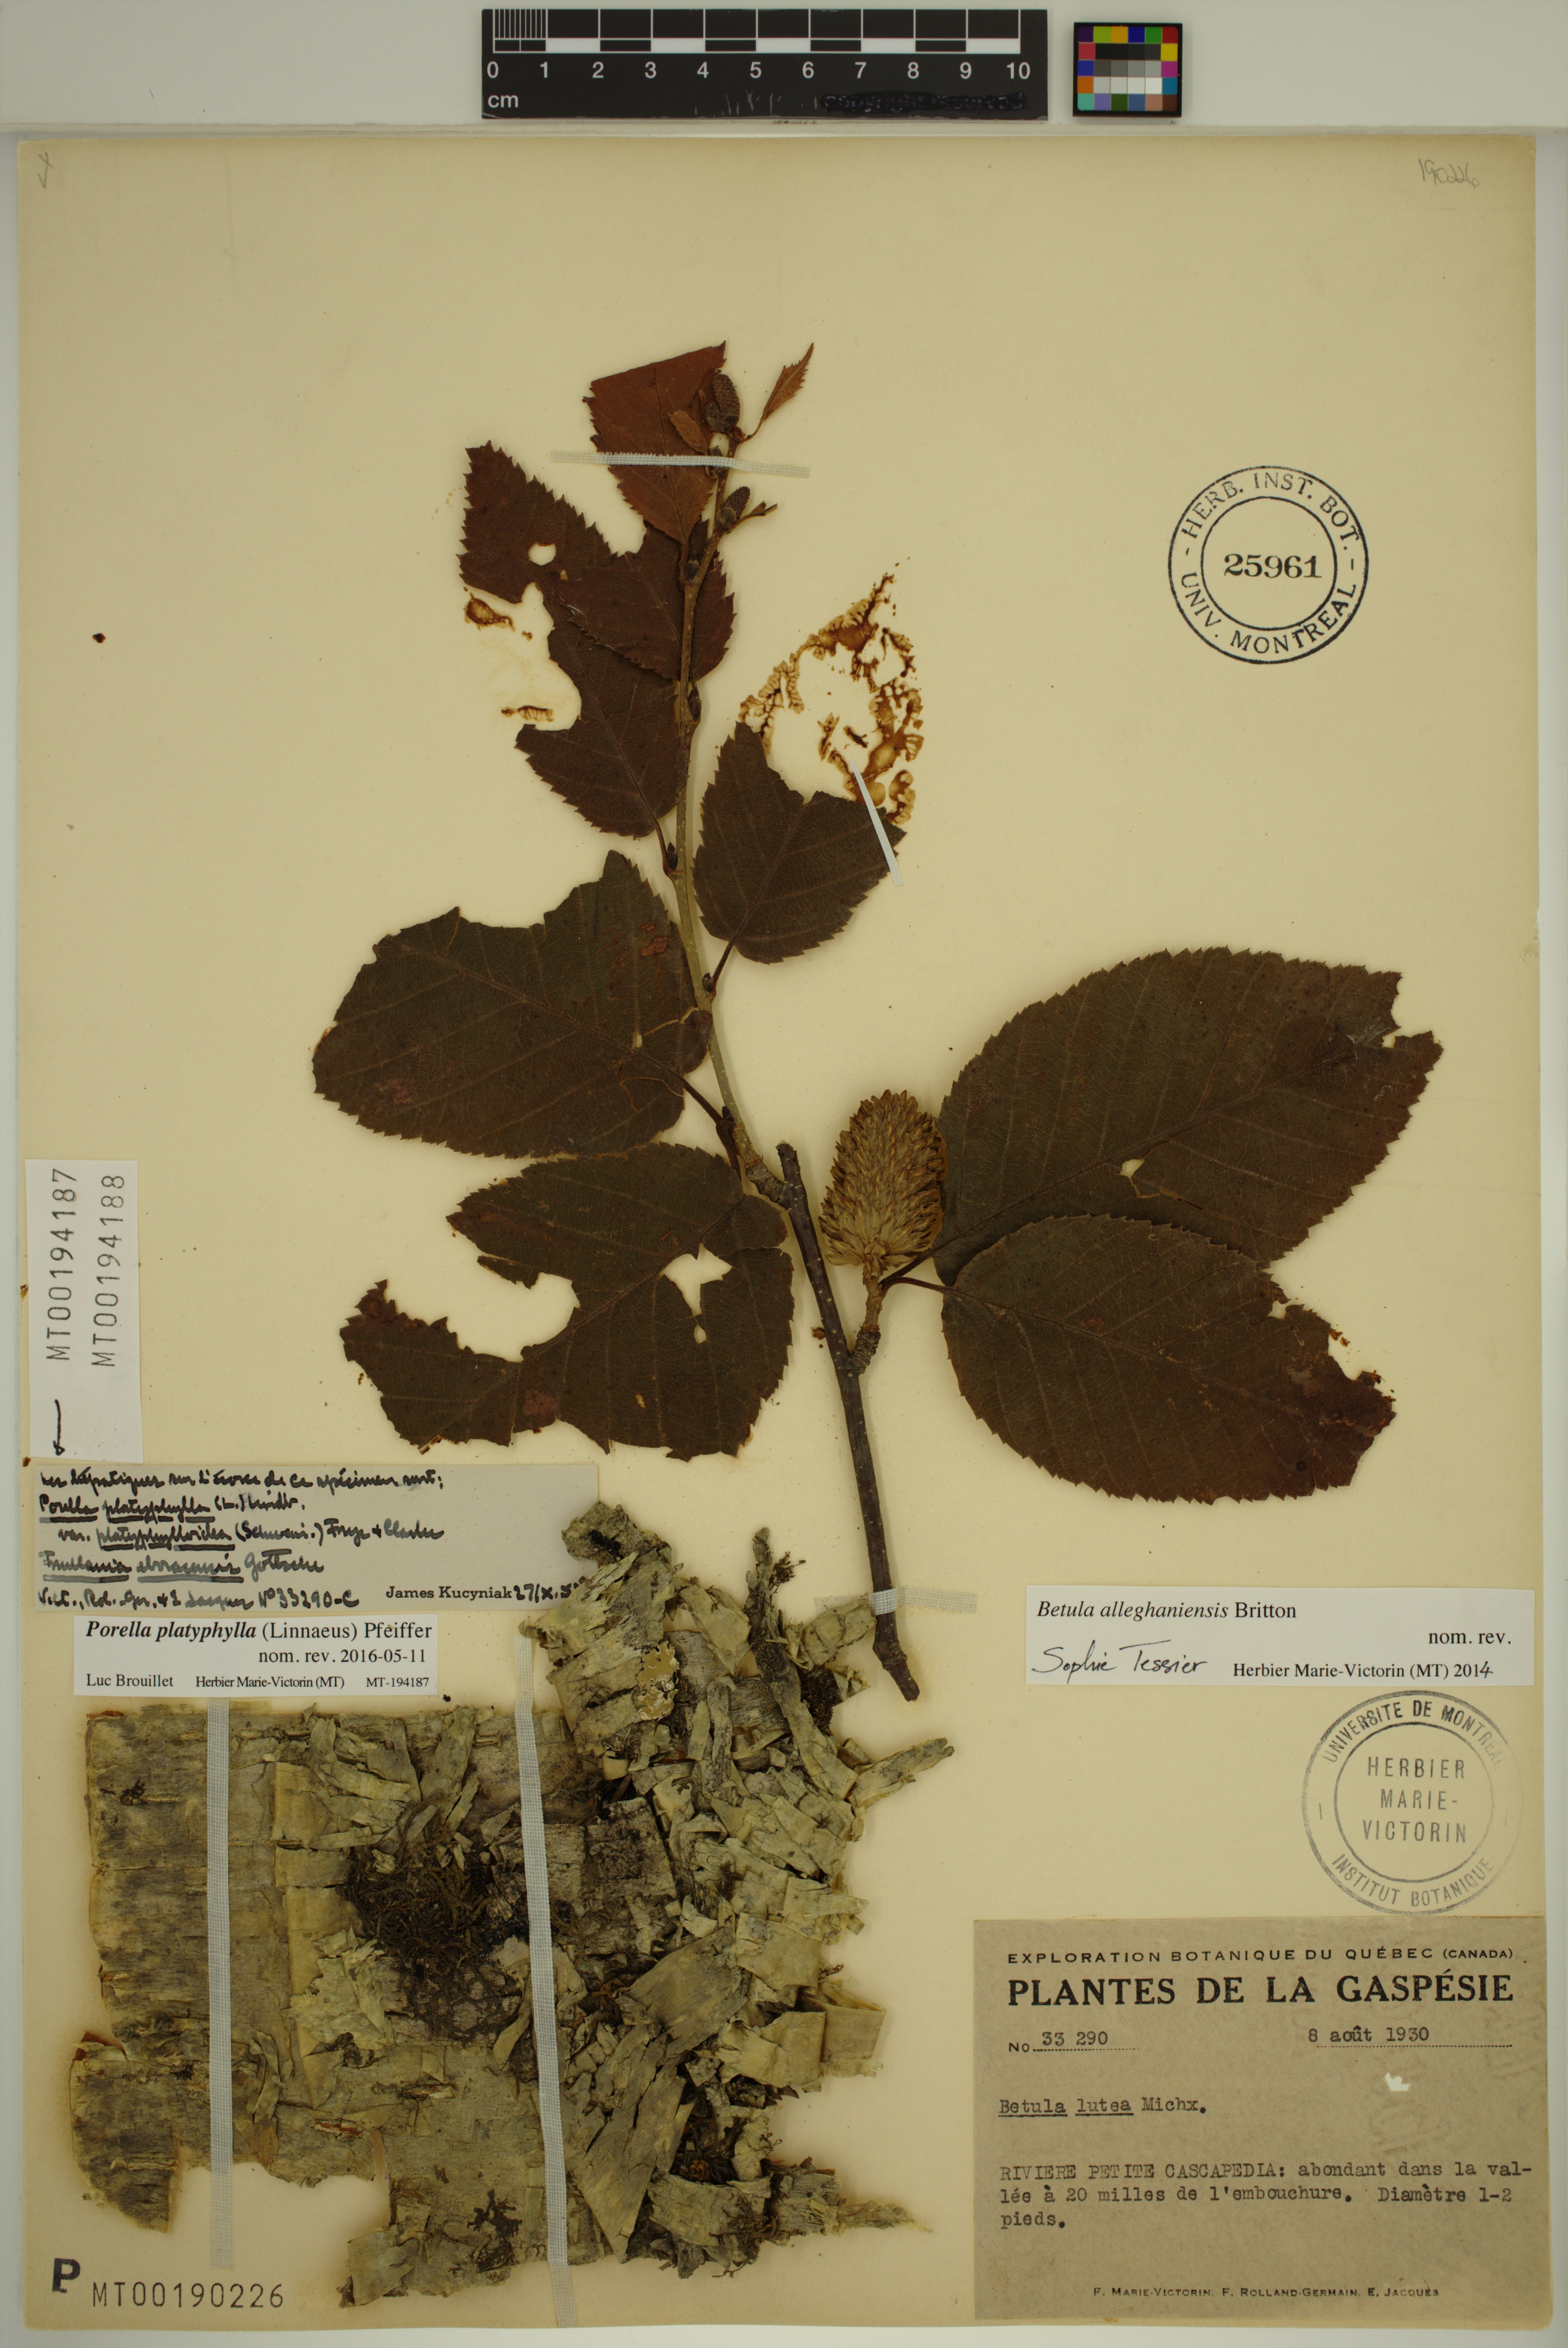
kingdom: Plantae
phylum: Marchantiophyta
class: Jungermanniopsida
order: Porellales
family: Porellaceae
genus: Porella
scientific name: Porella platyphylla
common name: Wall scalewort
